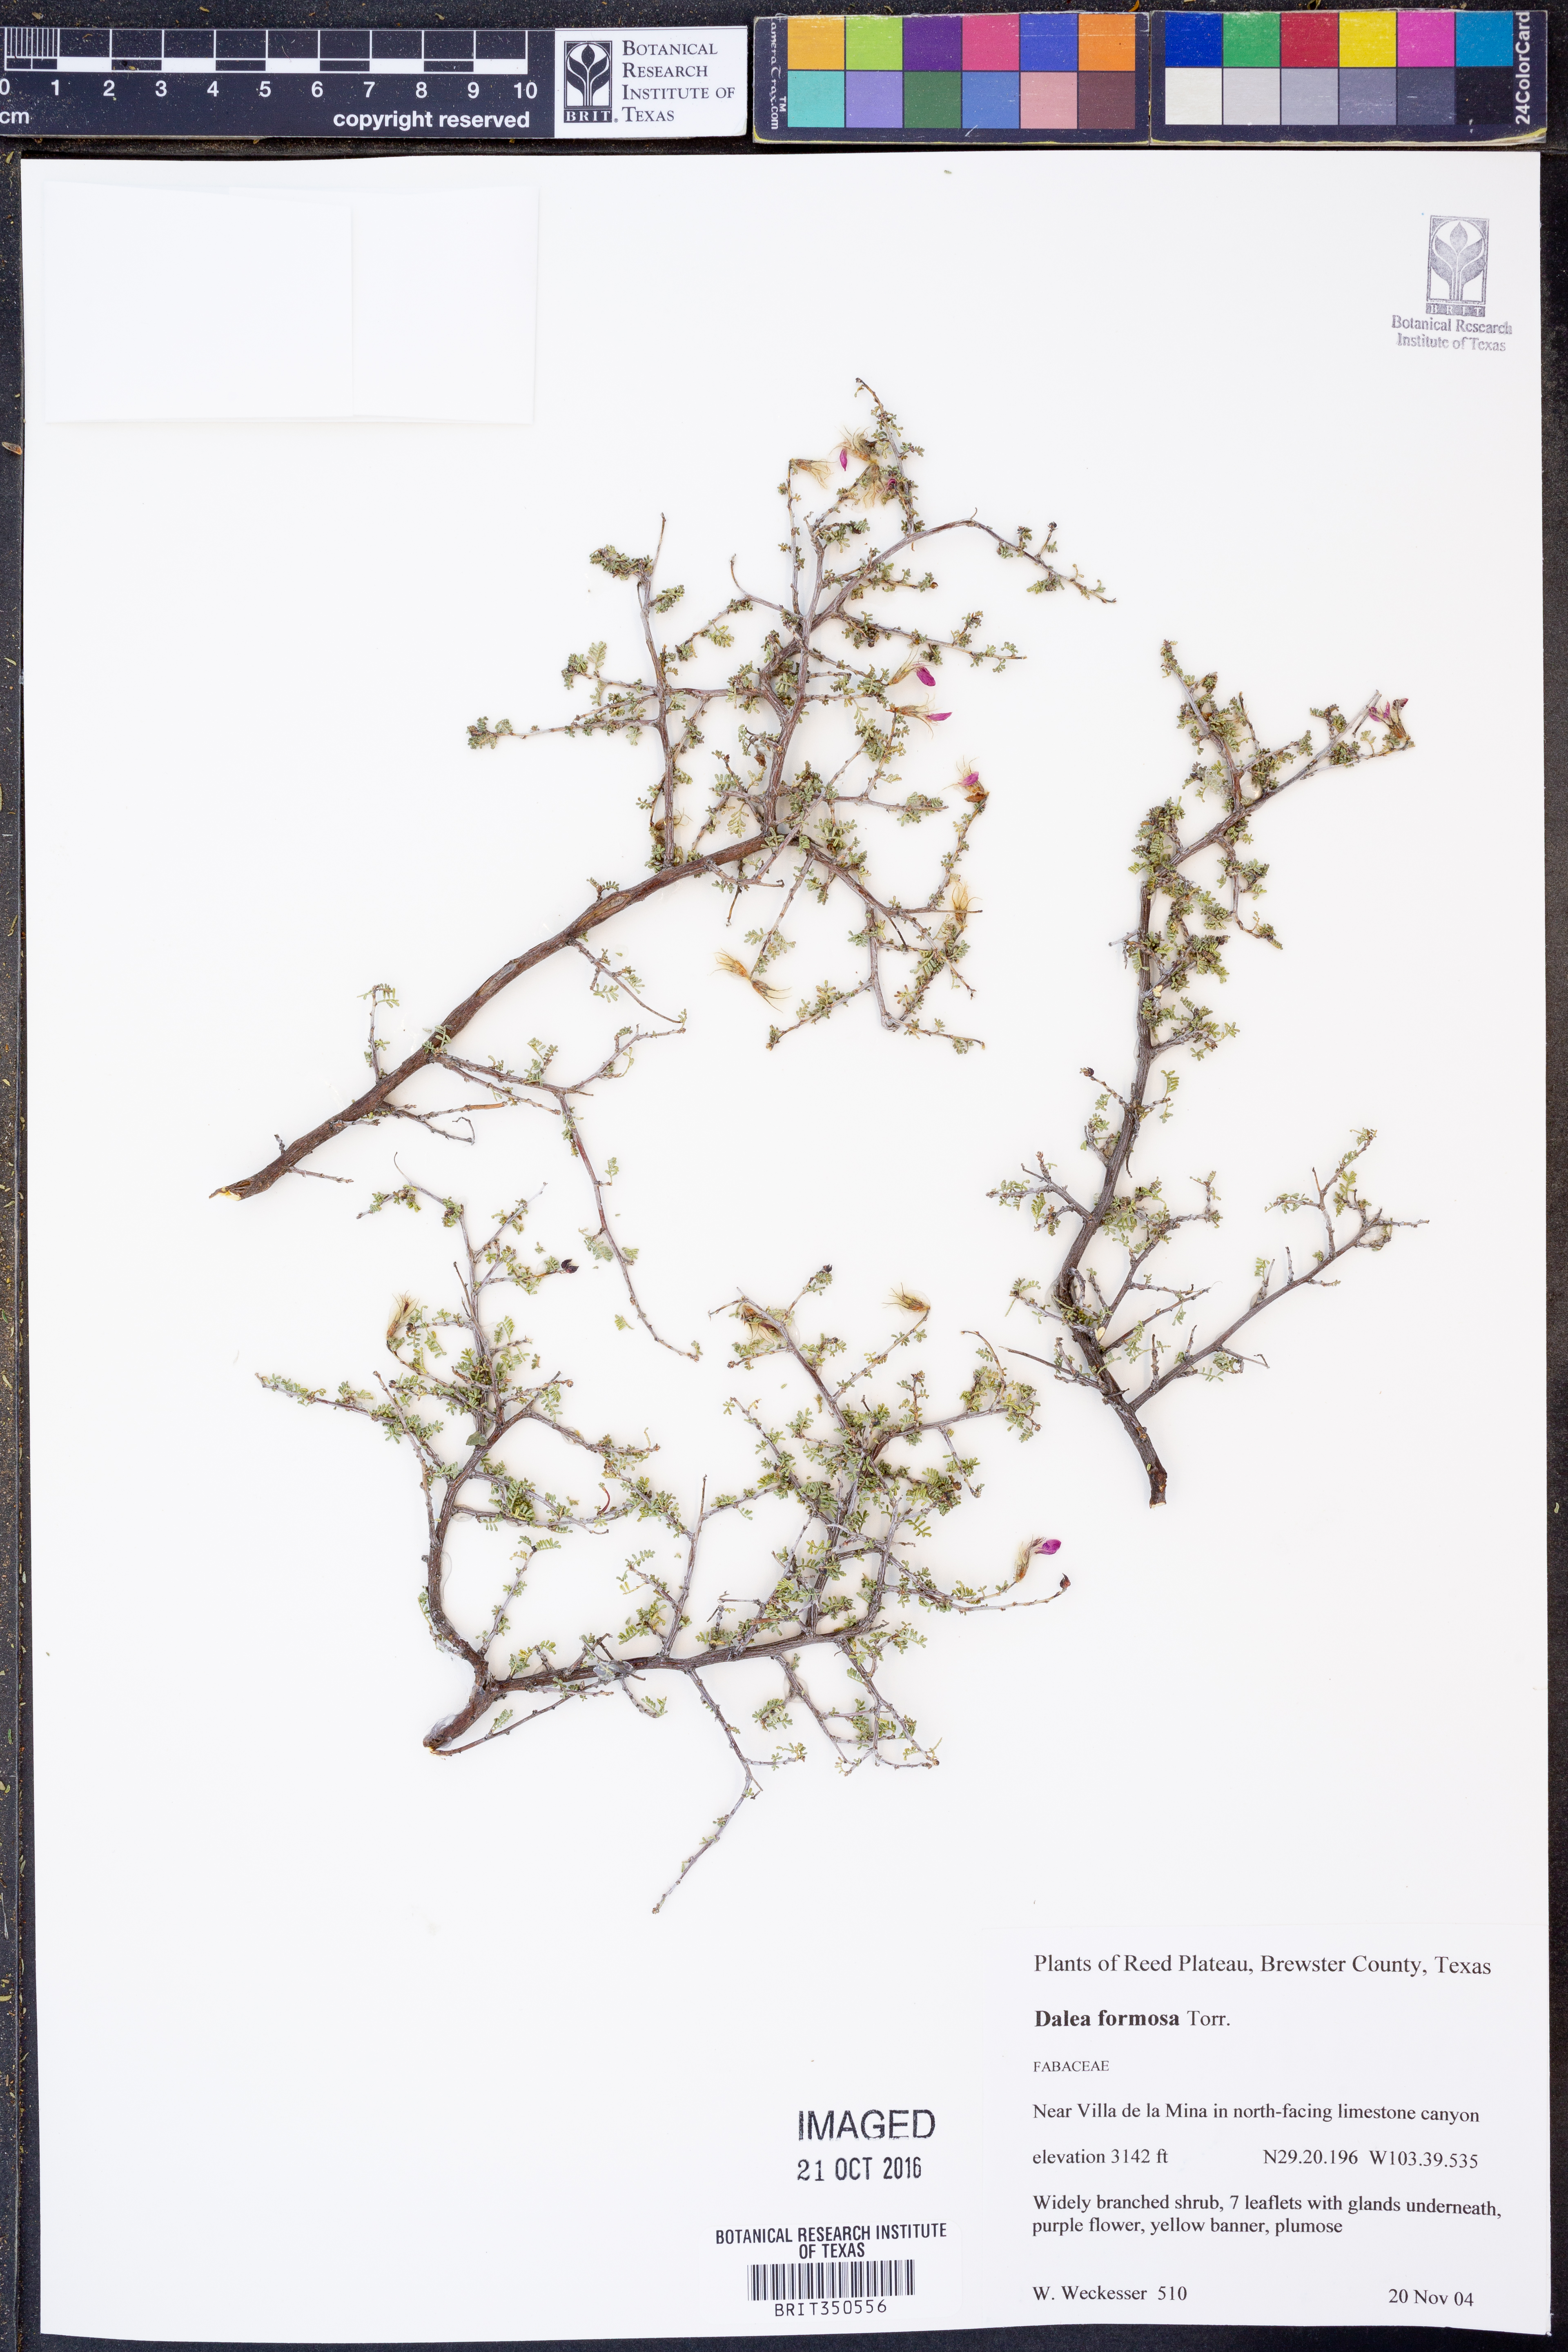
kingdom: Plantae
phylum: Tracheophyta
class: Magnoliopsida
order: Fabales
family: Fabaceae
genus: Dalea
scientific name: Dalea formosa
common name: Feather-plume dalea
